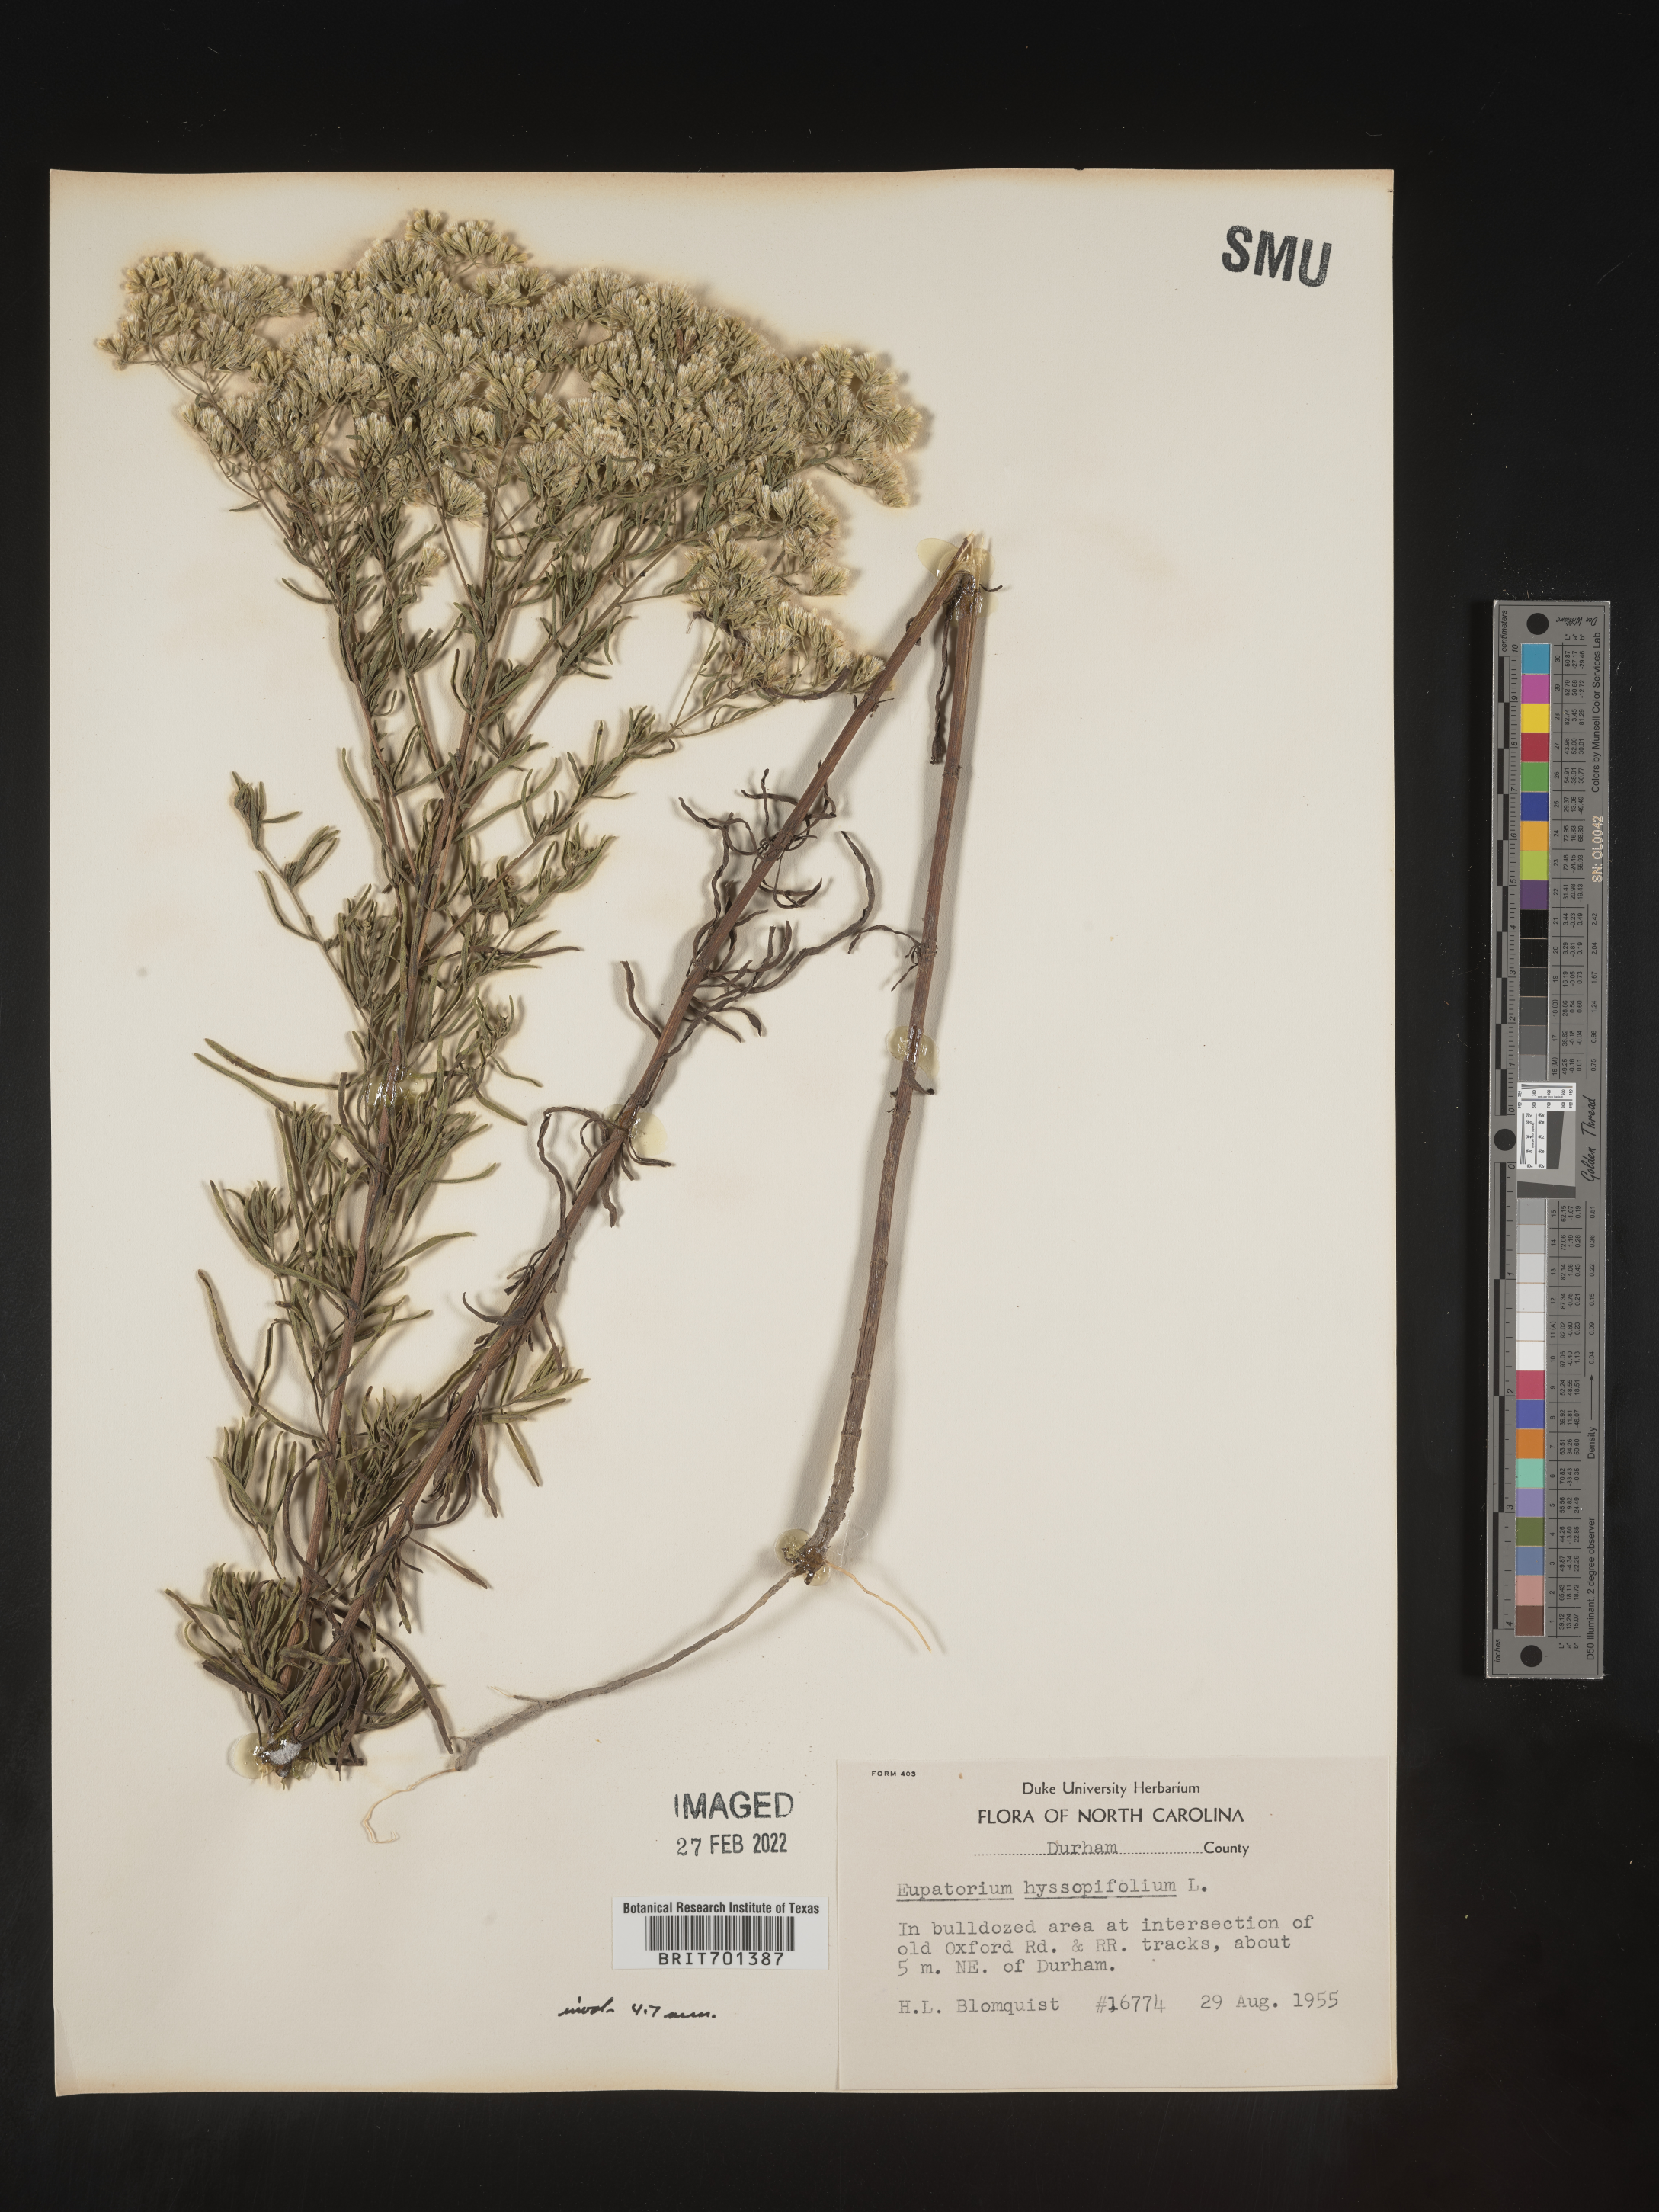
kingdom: Plantae
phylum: Tracheophyta
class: Magnoliopsida
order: Asterales
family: Asteraceae
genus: Eupatorium
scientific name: Eupatorium hyssopifolium
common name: Hyssop-leaf thoroughwort
